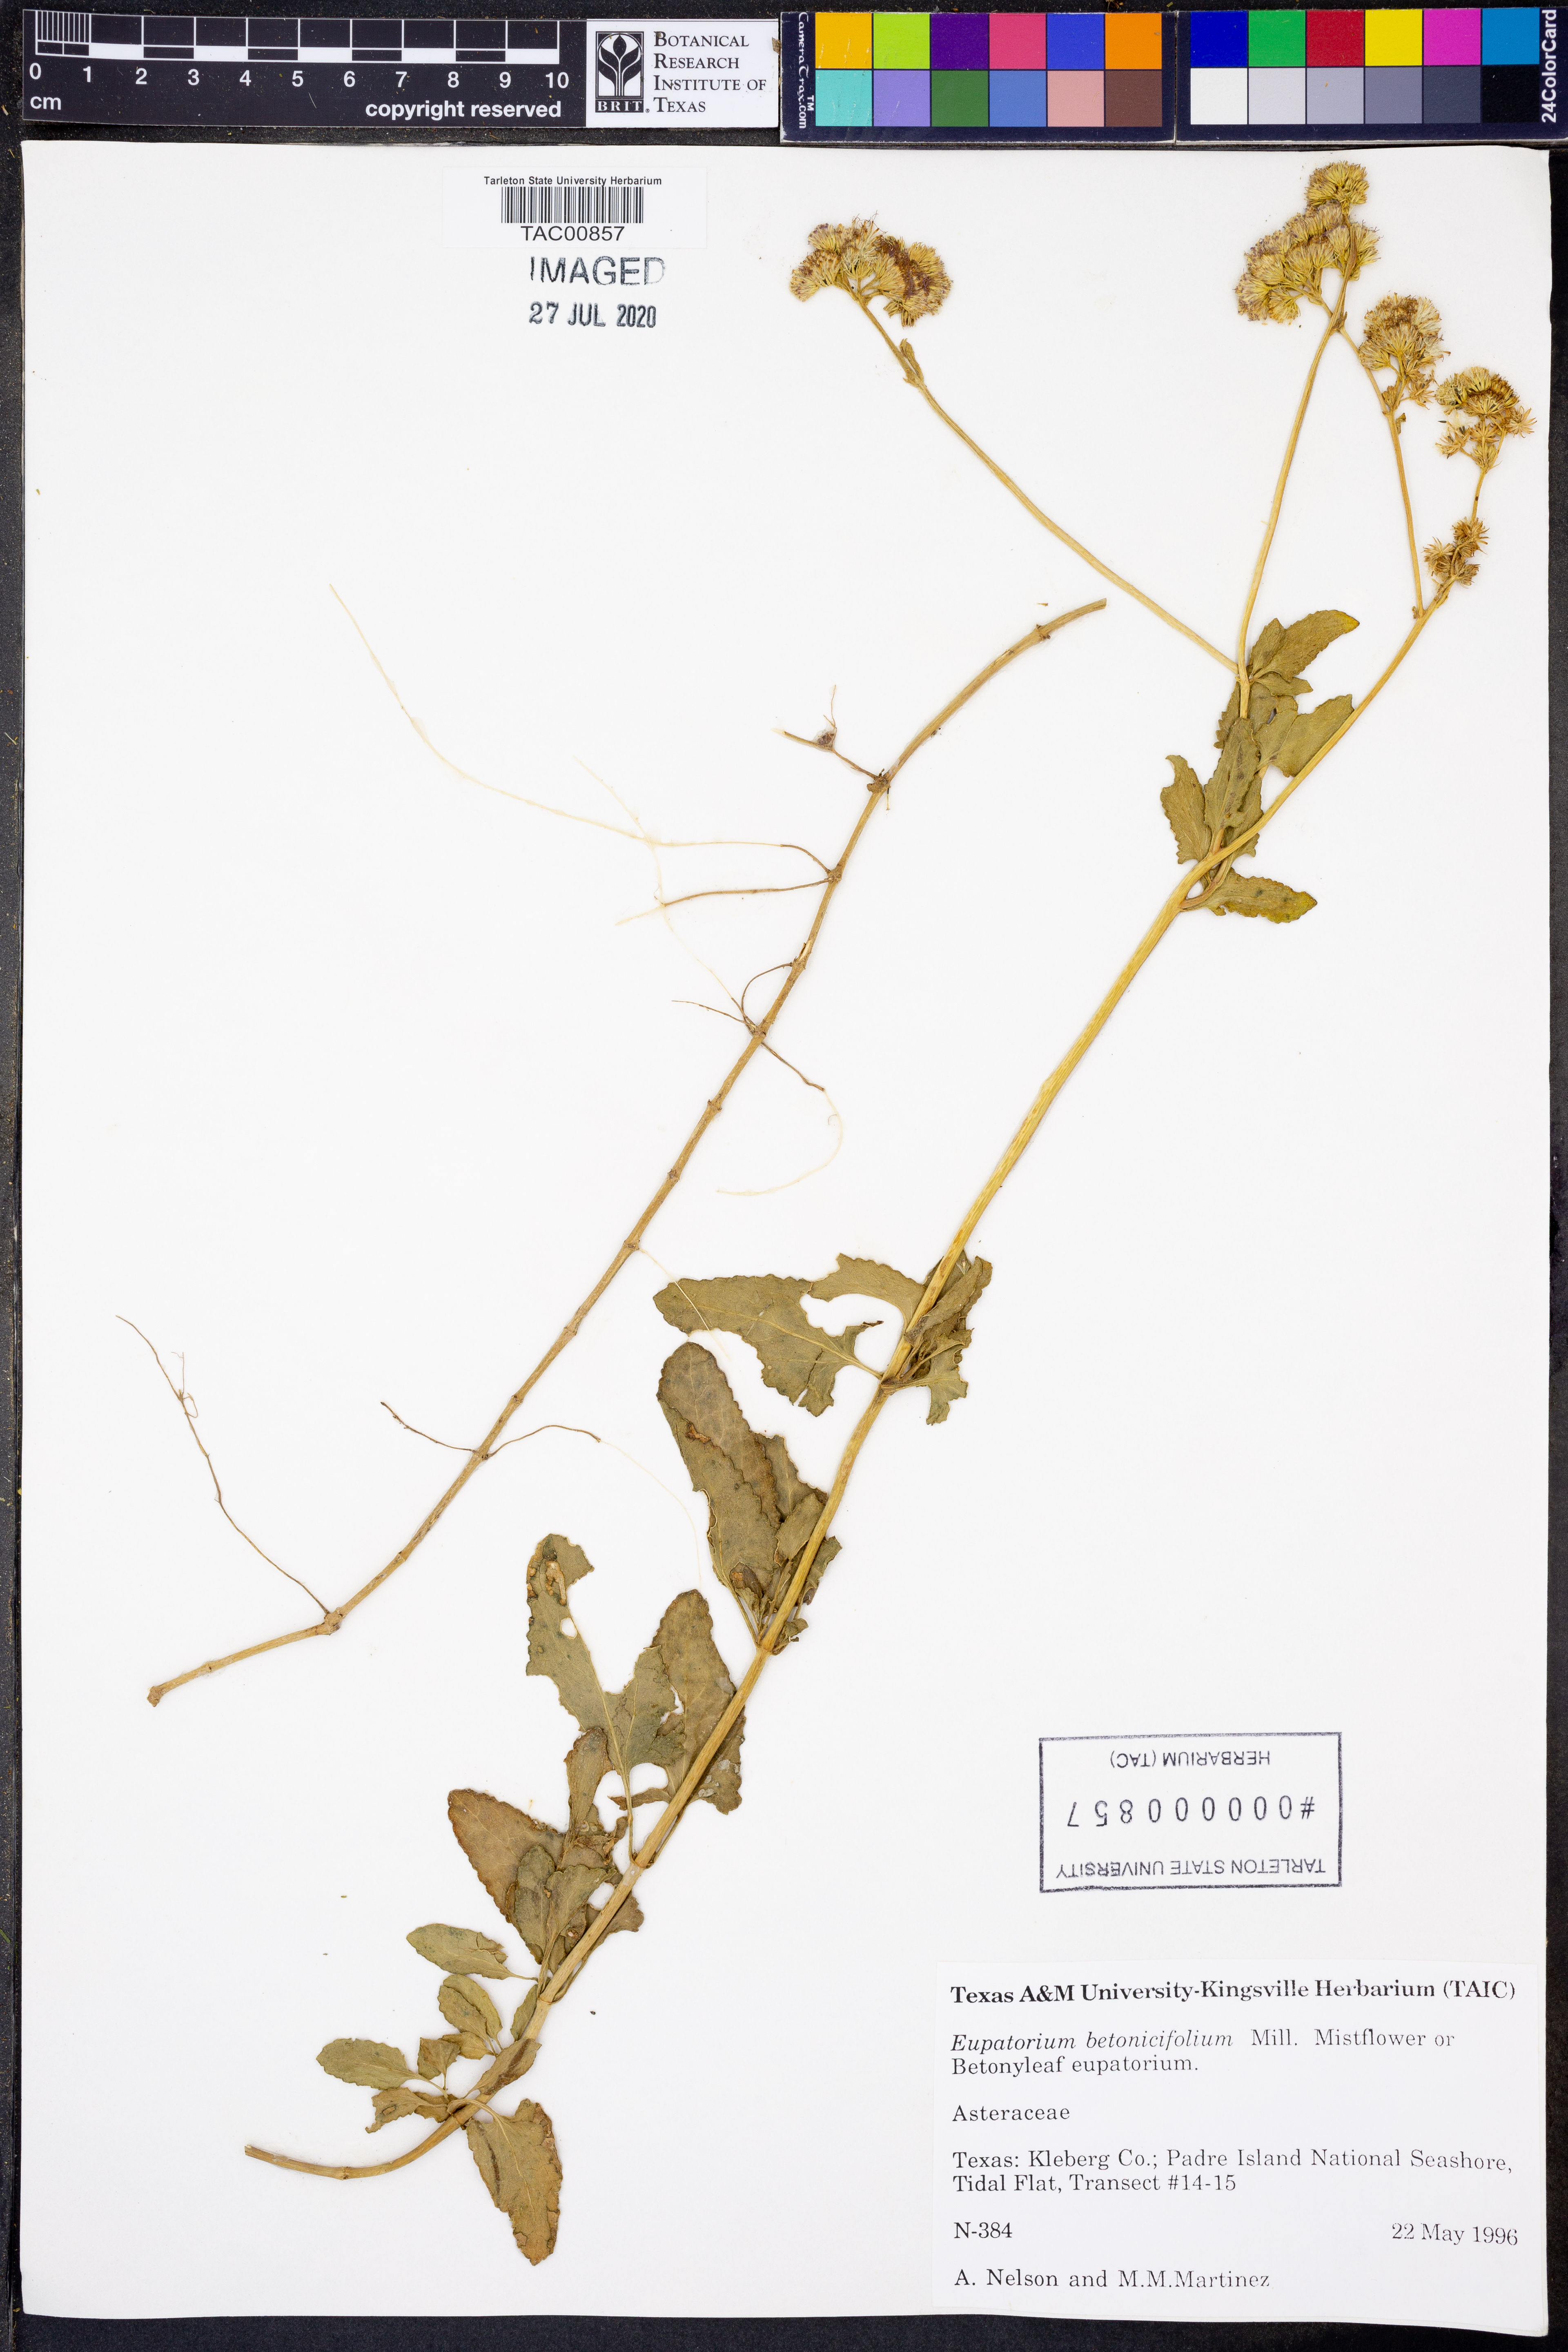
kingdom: Plantae
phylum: Tracheophyta
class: Magnoliopsida
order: Asterales
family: Asteraceae
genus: Conoclinium
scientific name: Conoclinium betonicifolium
